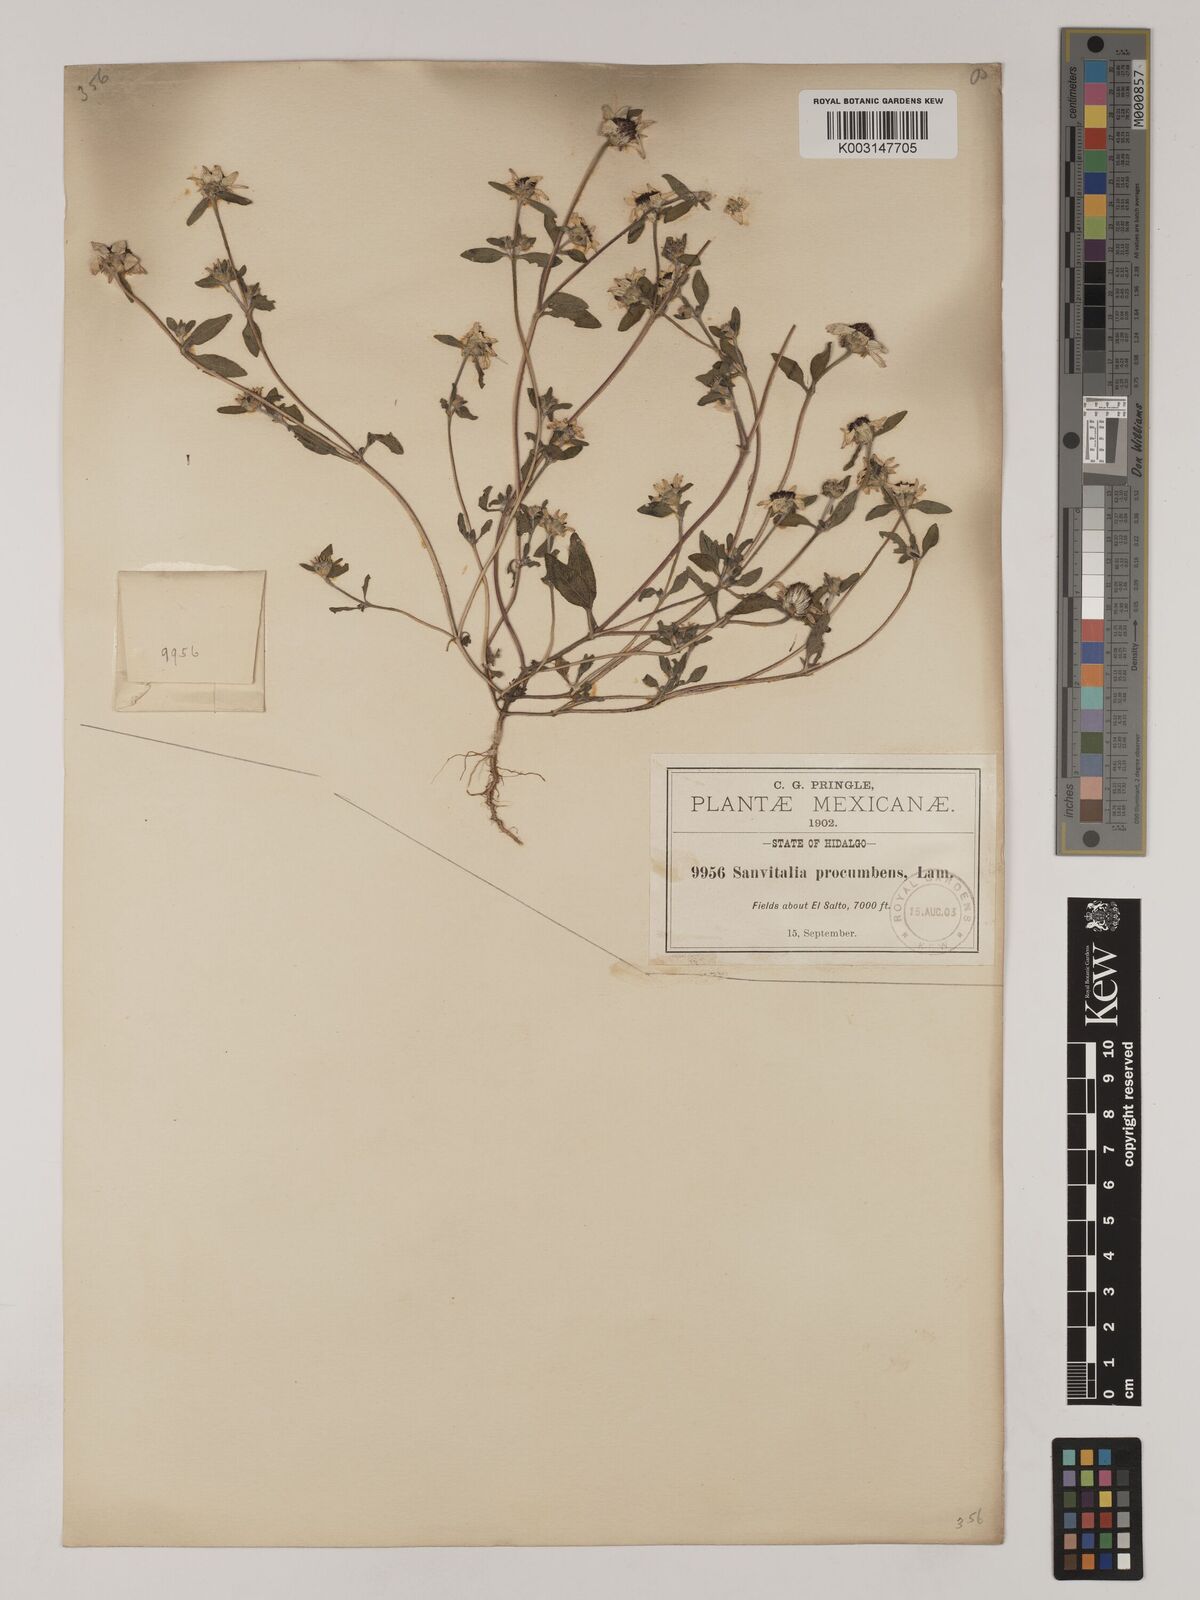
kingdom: Plantae
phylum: Tracheophyta
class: Magnoliopsida
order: Asterales
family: Asteraceae
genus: Sanvitalia
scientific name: Sanvitalia procumbens
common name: Mexican creeping zinnia
